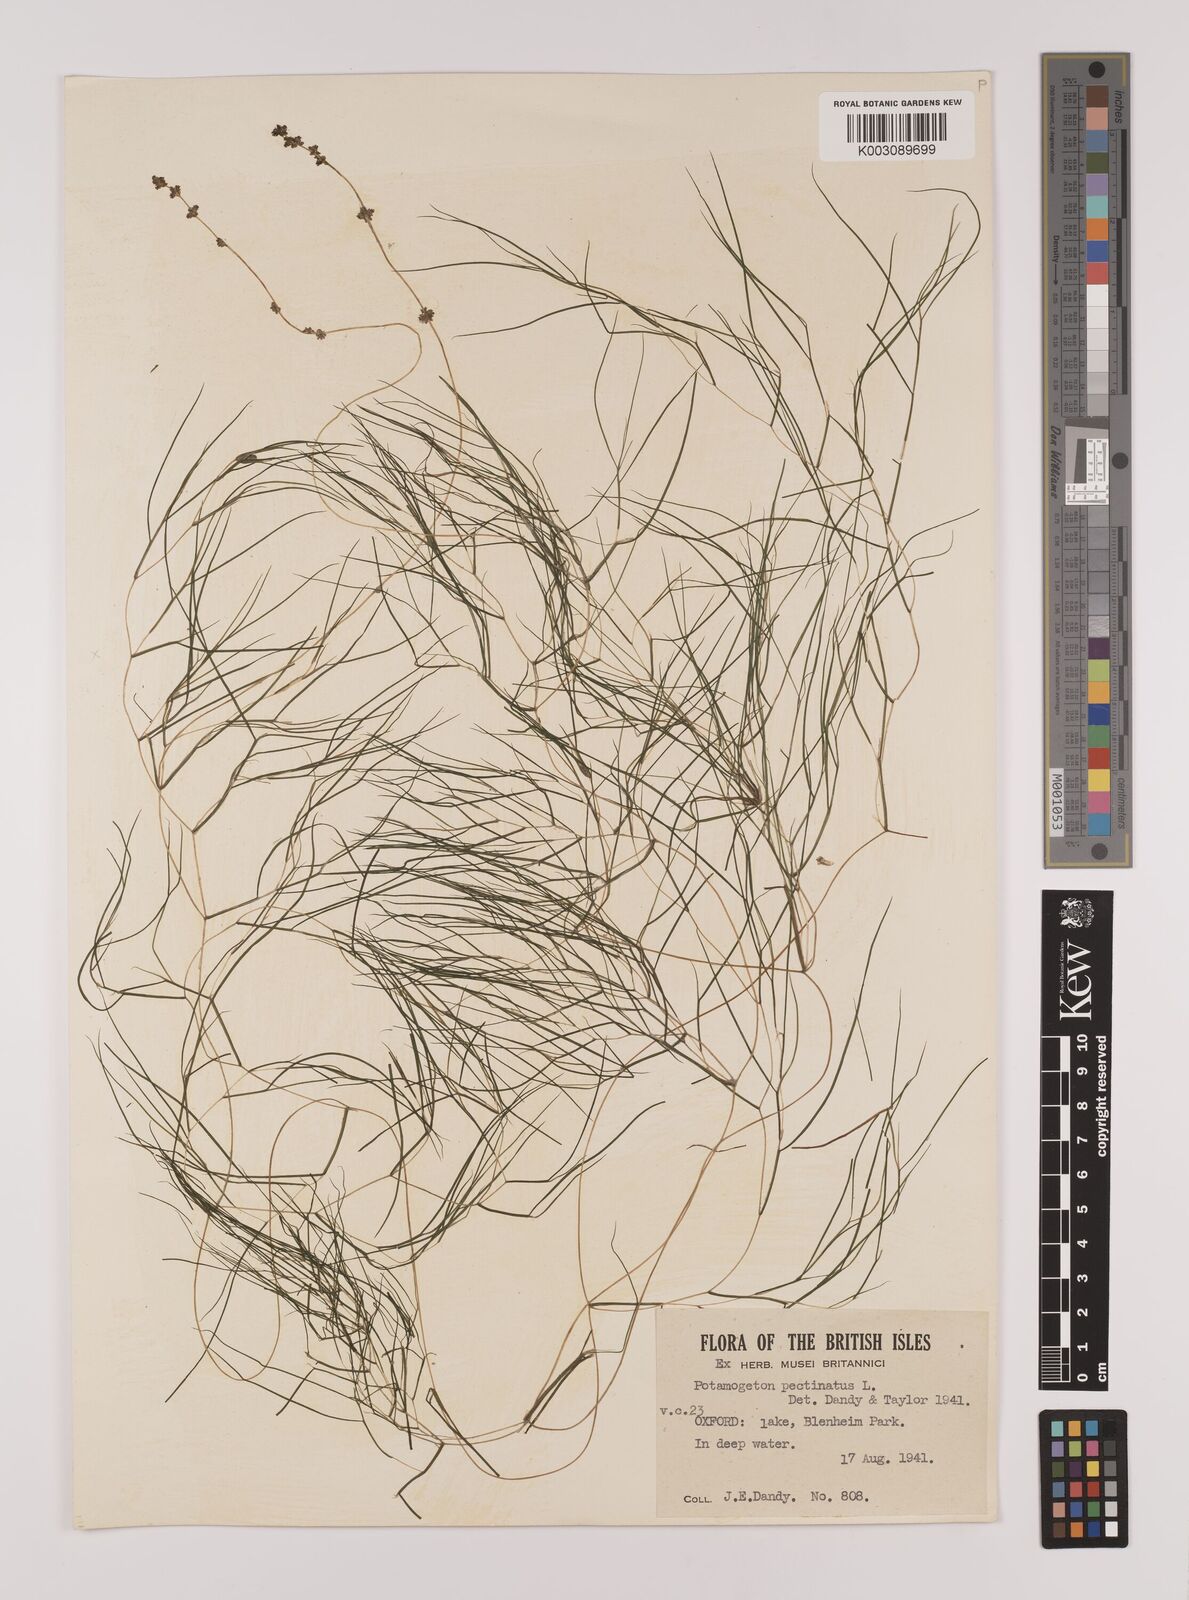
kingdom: Plantae
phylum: Tracheophyta
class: Liliopsida
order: Alismatales
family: Potamogetonaceae
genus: Stuckenia
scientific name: Stuckenia pectinata
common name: Sago pondweed
